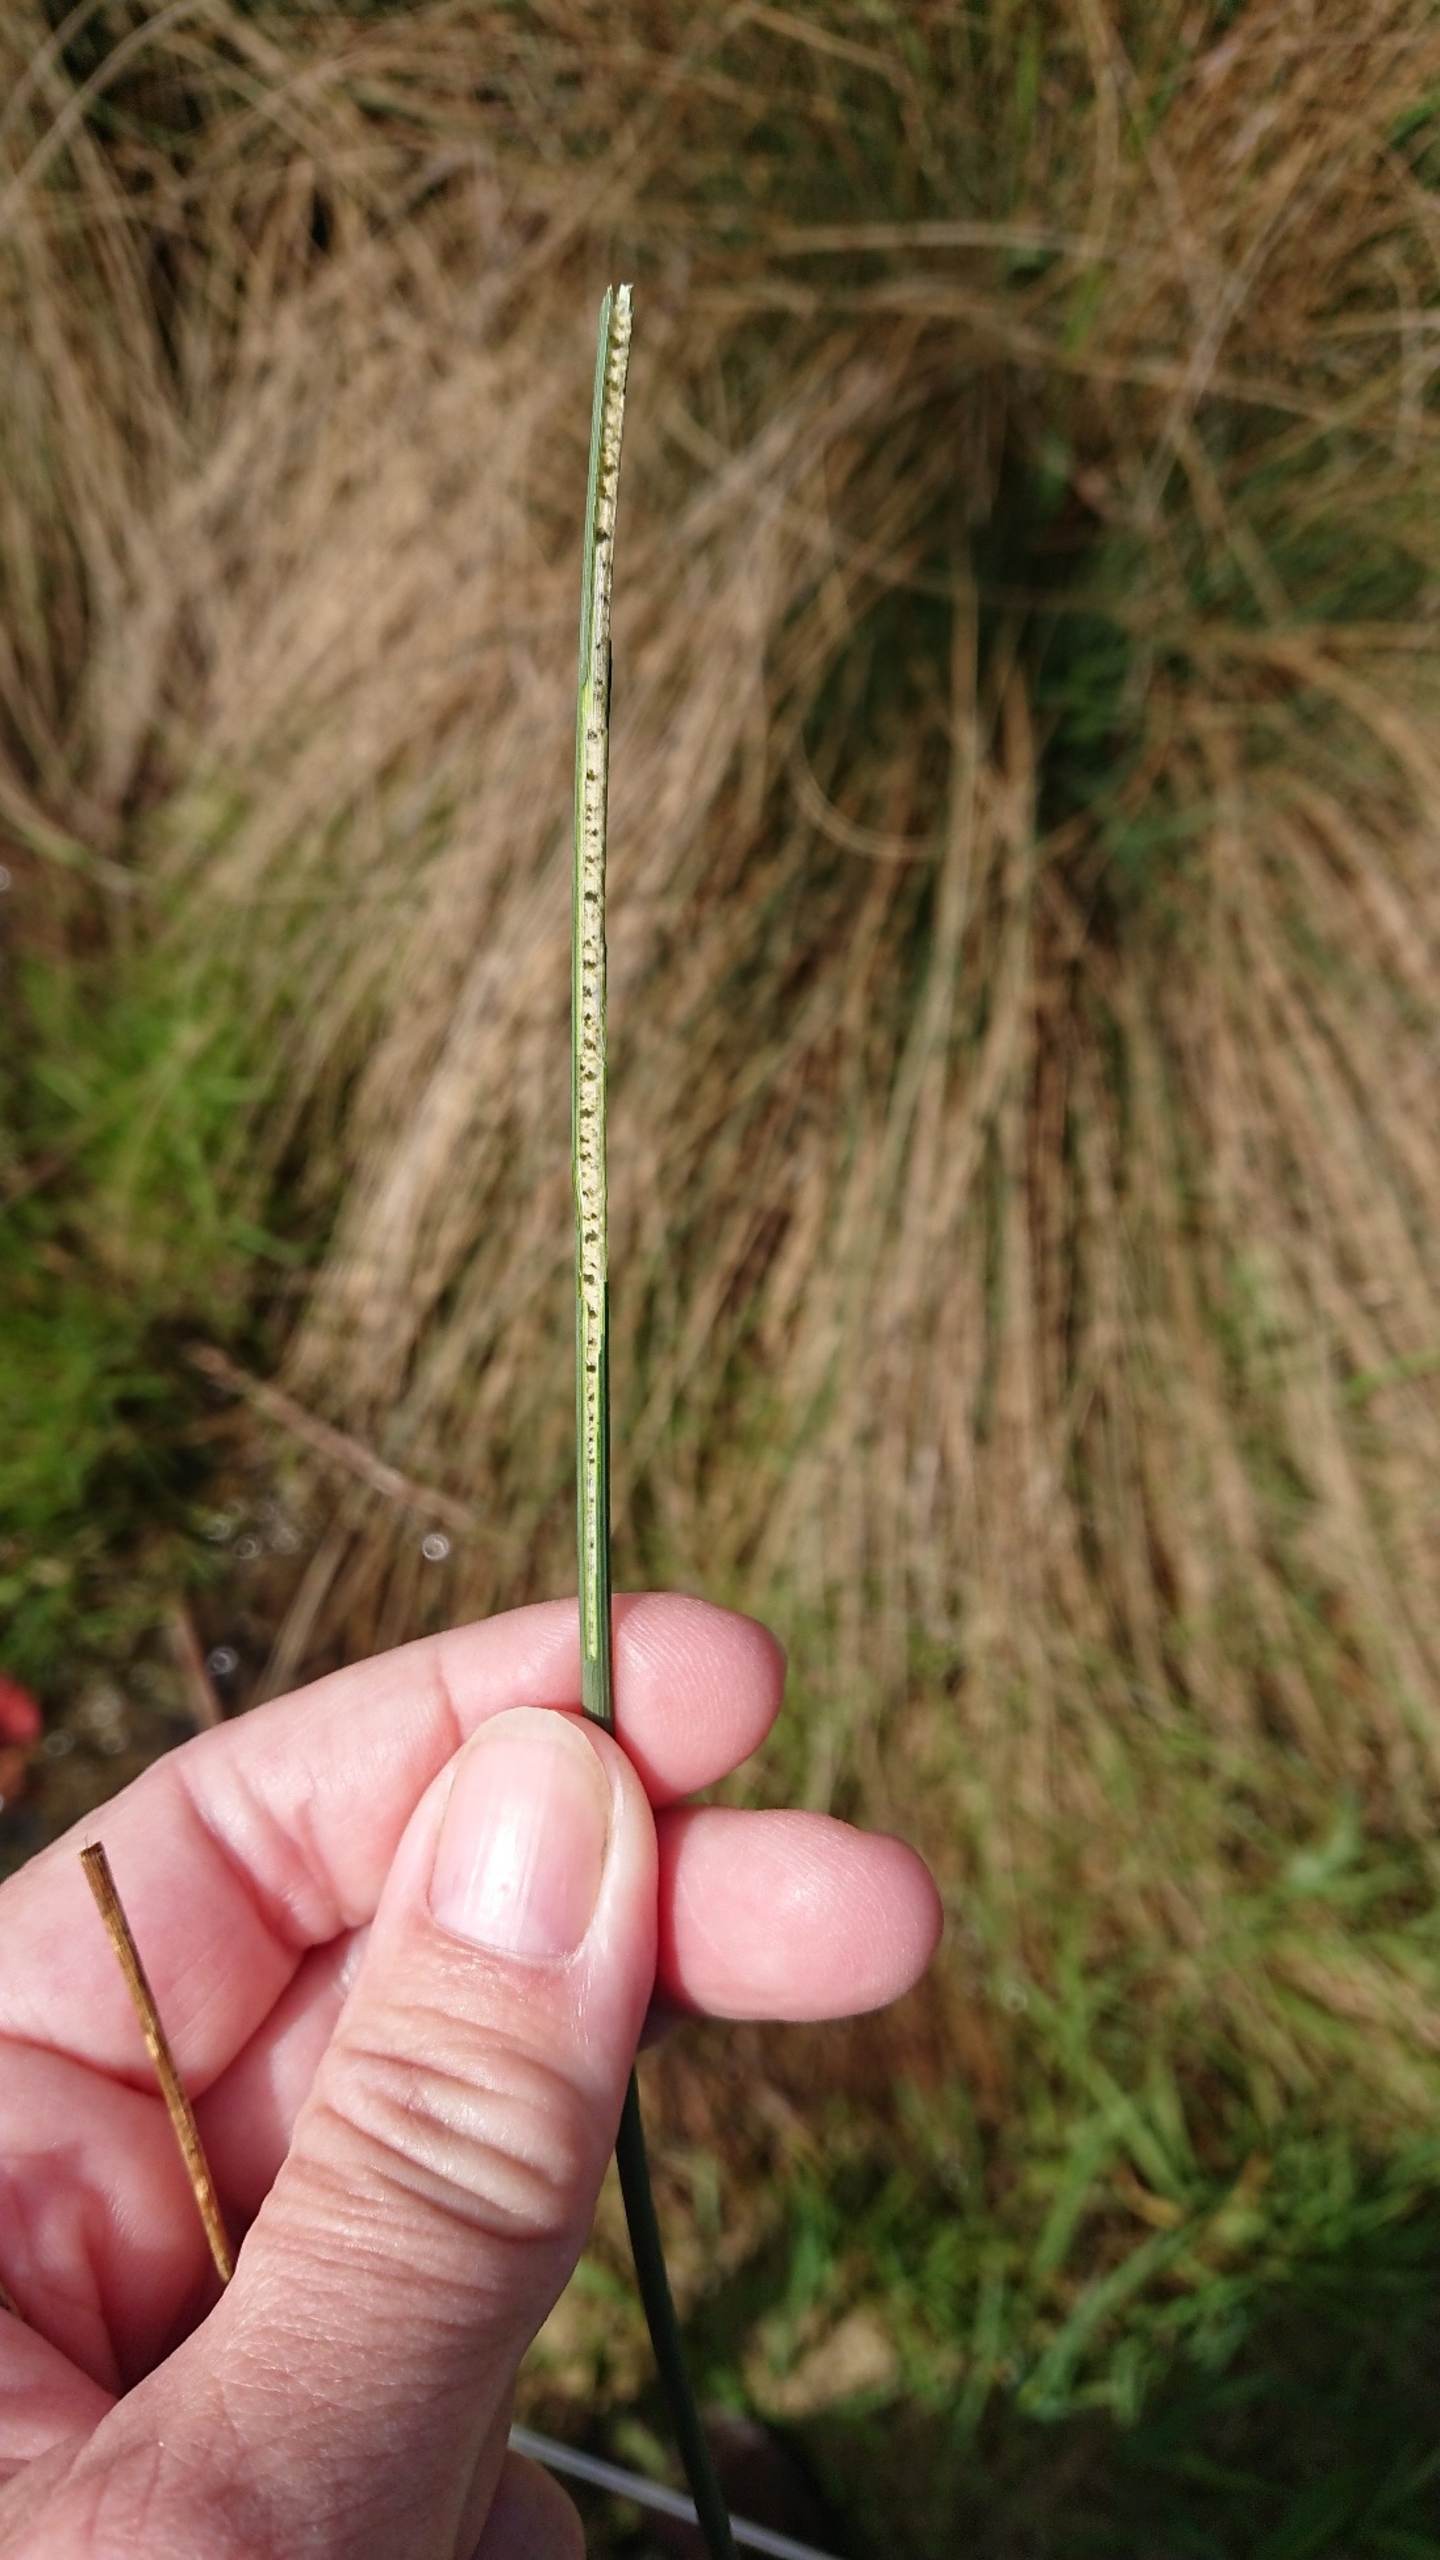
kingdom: Plantae
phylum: Tracheophyta
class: Liliopsida
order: Poales
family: Juncaceae
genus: Juncus
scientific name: Juncus inflexus
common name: Blågrå siv
